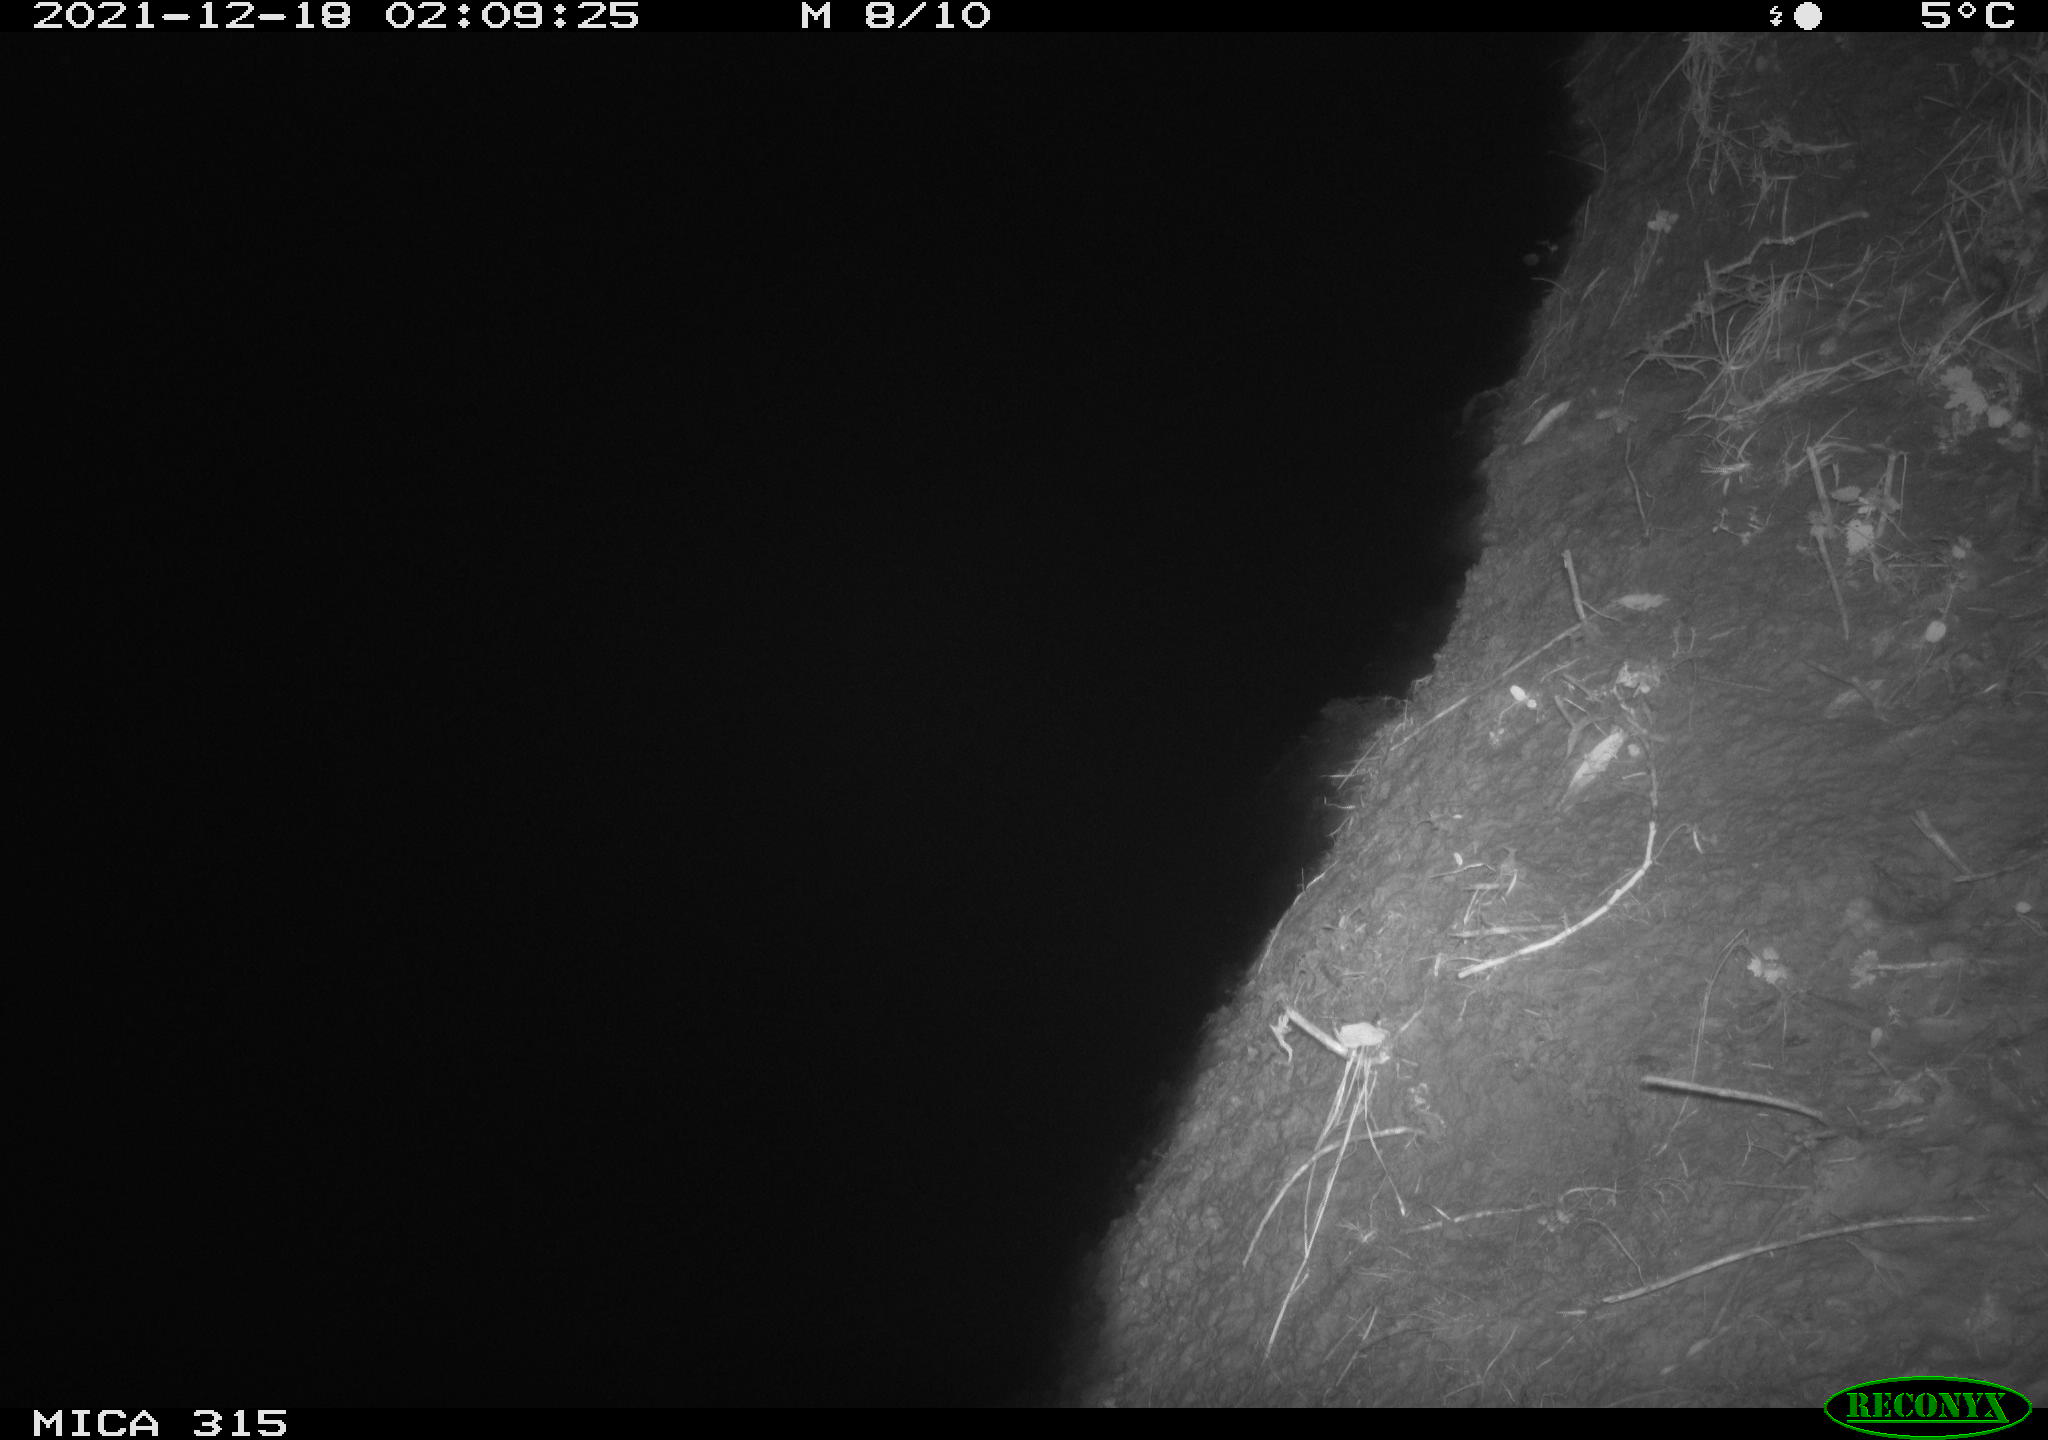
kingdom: Animalia
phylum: Chordata
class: Mammalia
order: Carnivora
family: Mustelidae
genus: Martes
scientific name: Martes foina
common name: Beech marten
